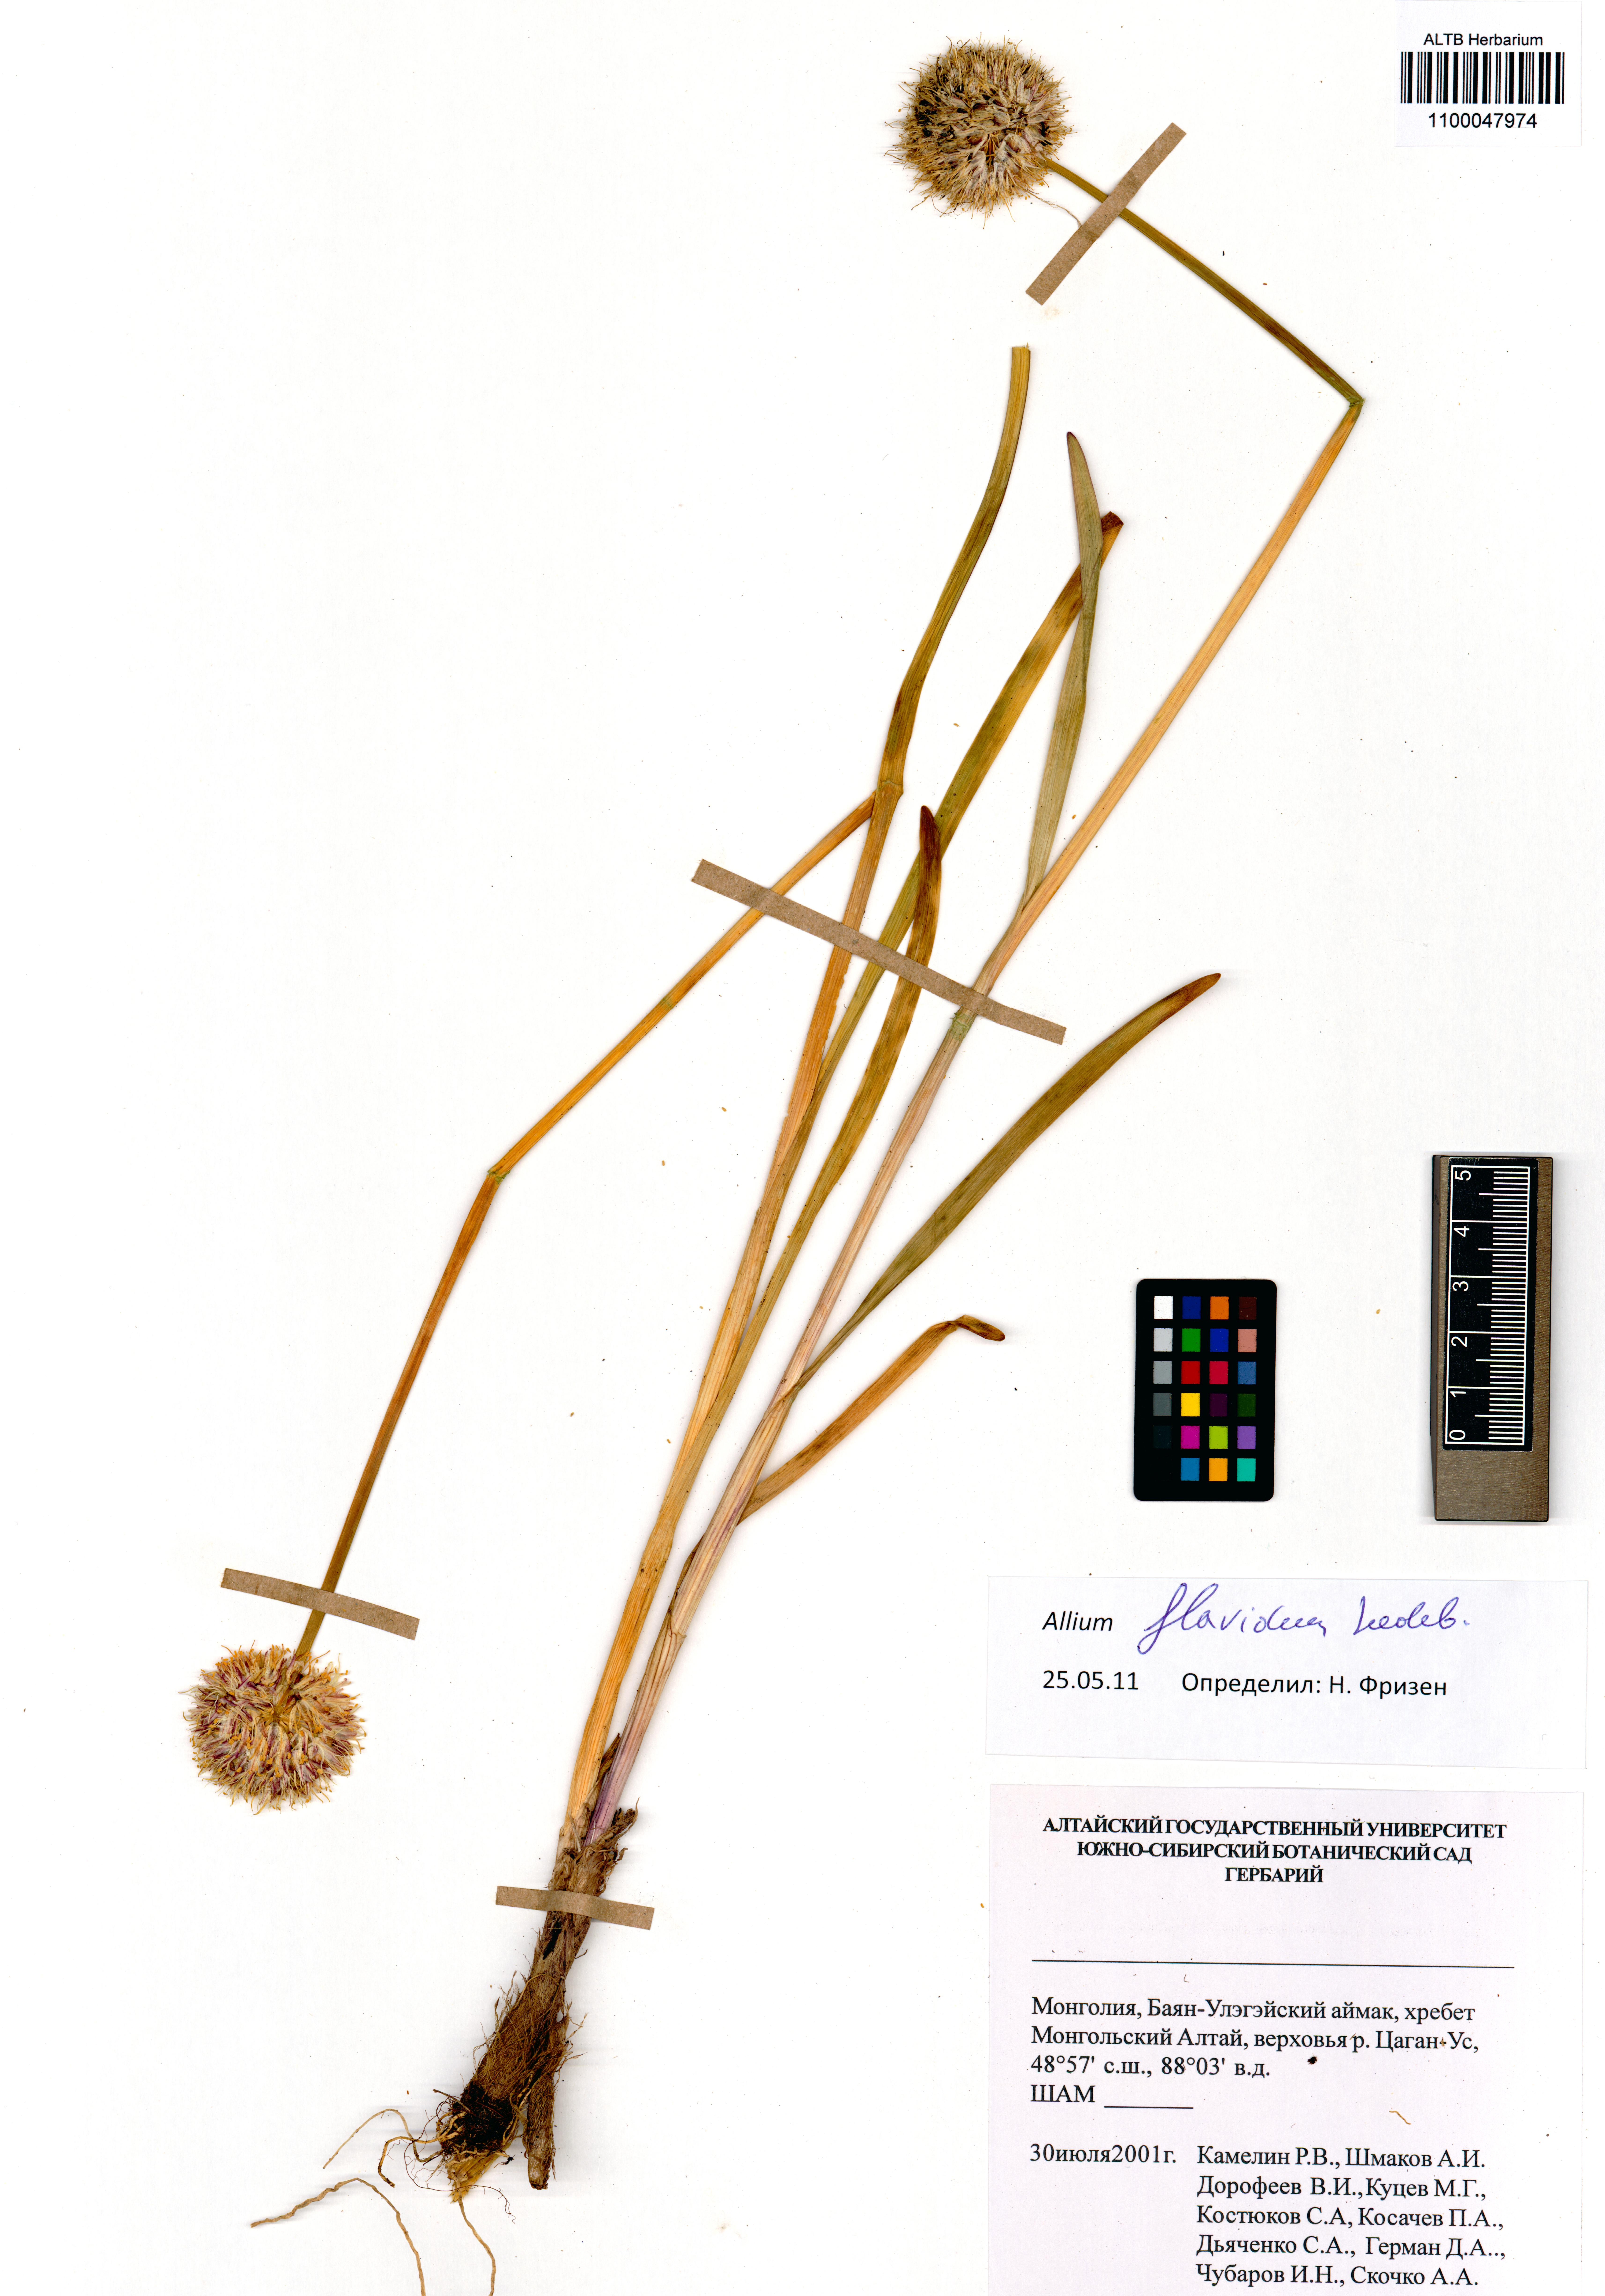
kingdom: Plantae
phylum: Tracheophyta
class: Liliopsida
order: Asparagales
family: Amaryllidaceae
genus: Allium
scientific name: Allium flavidum
